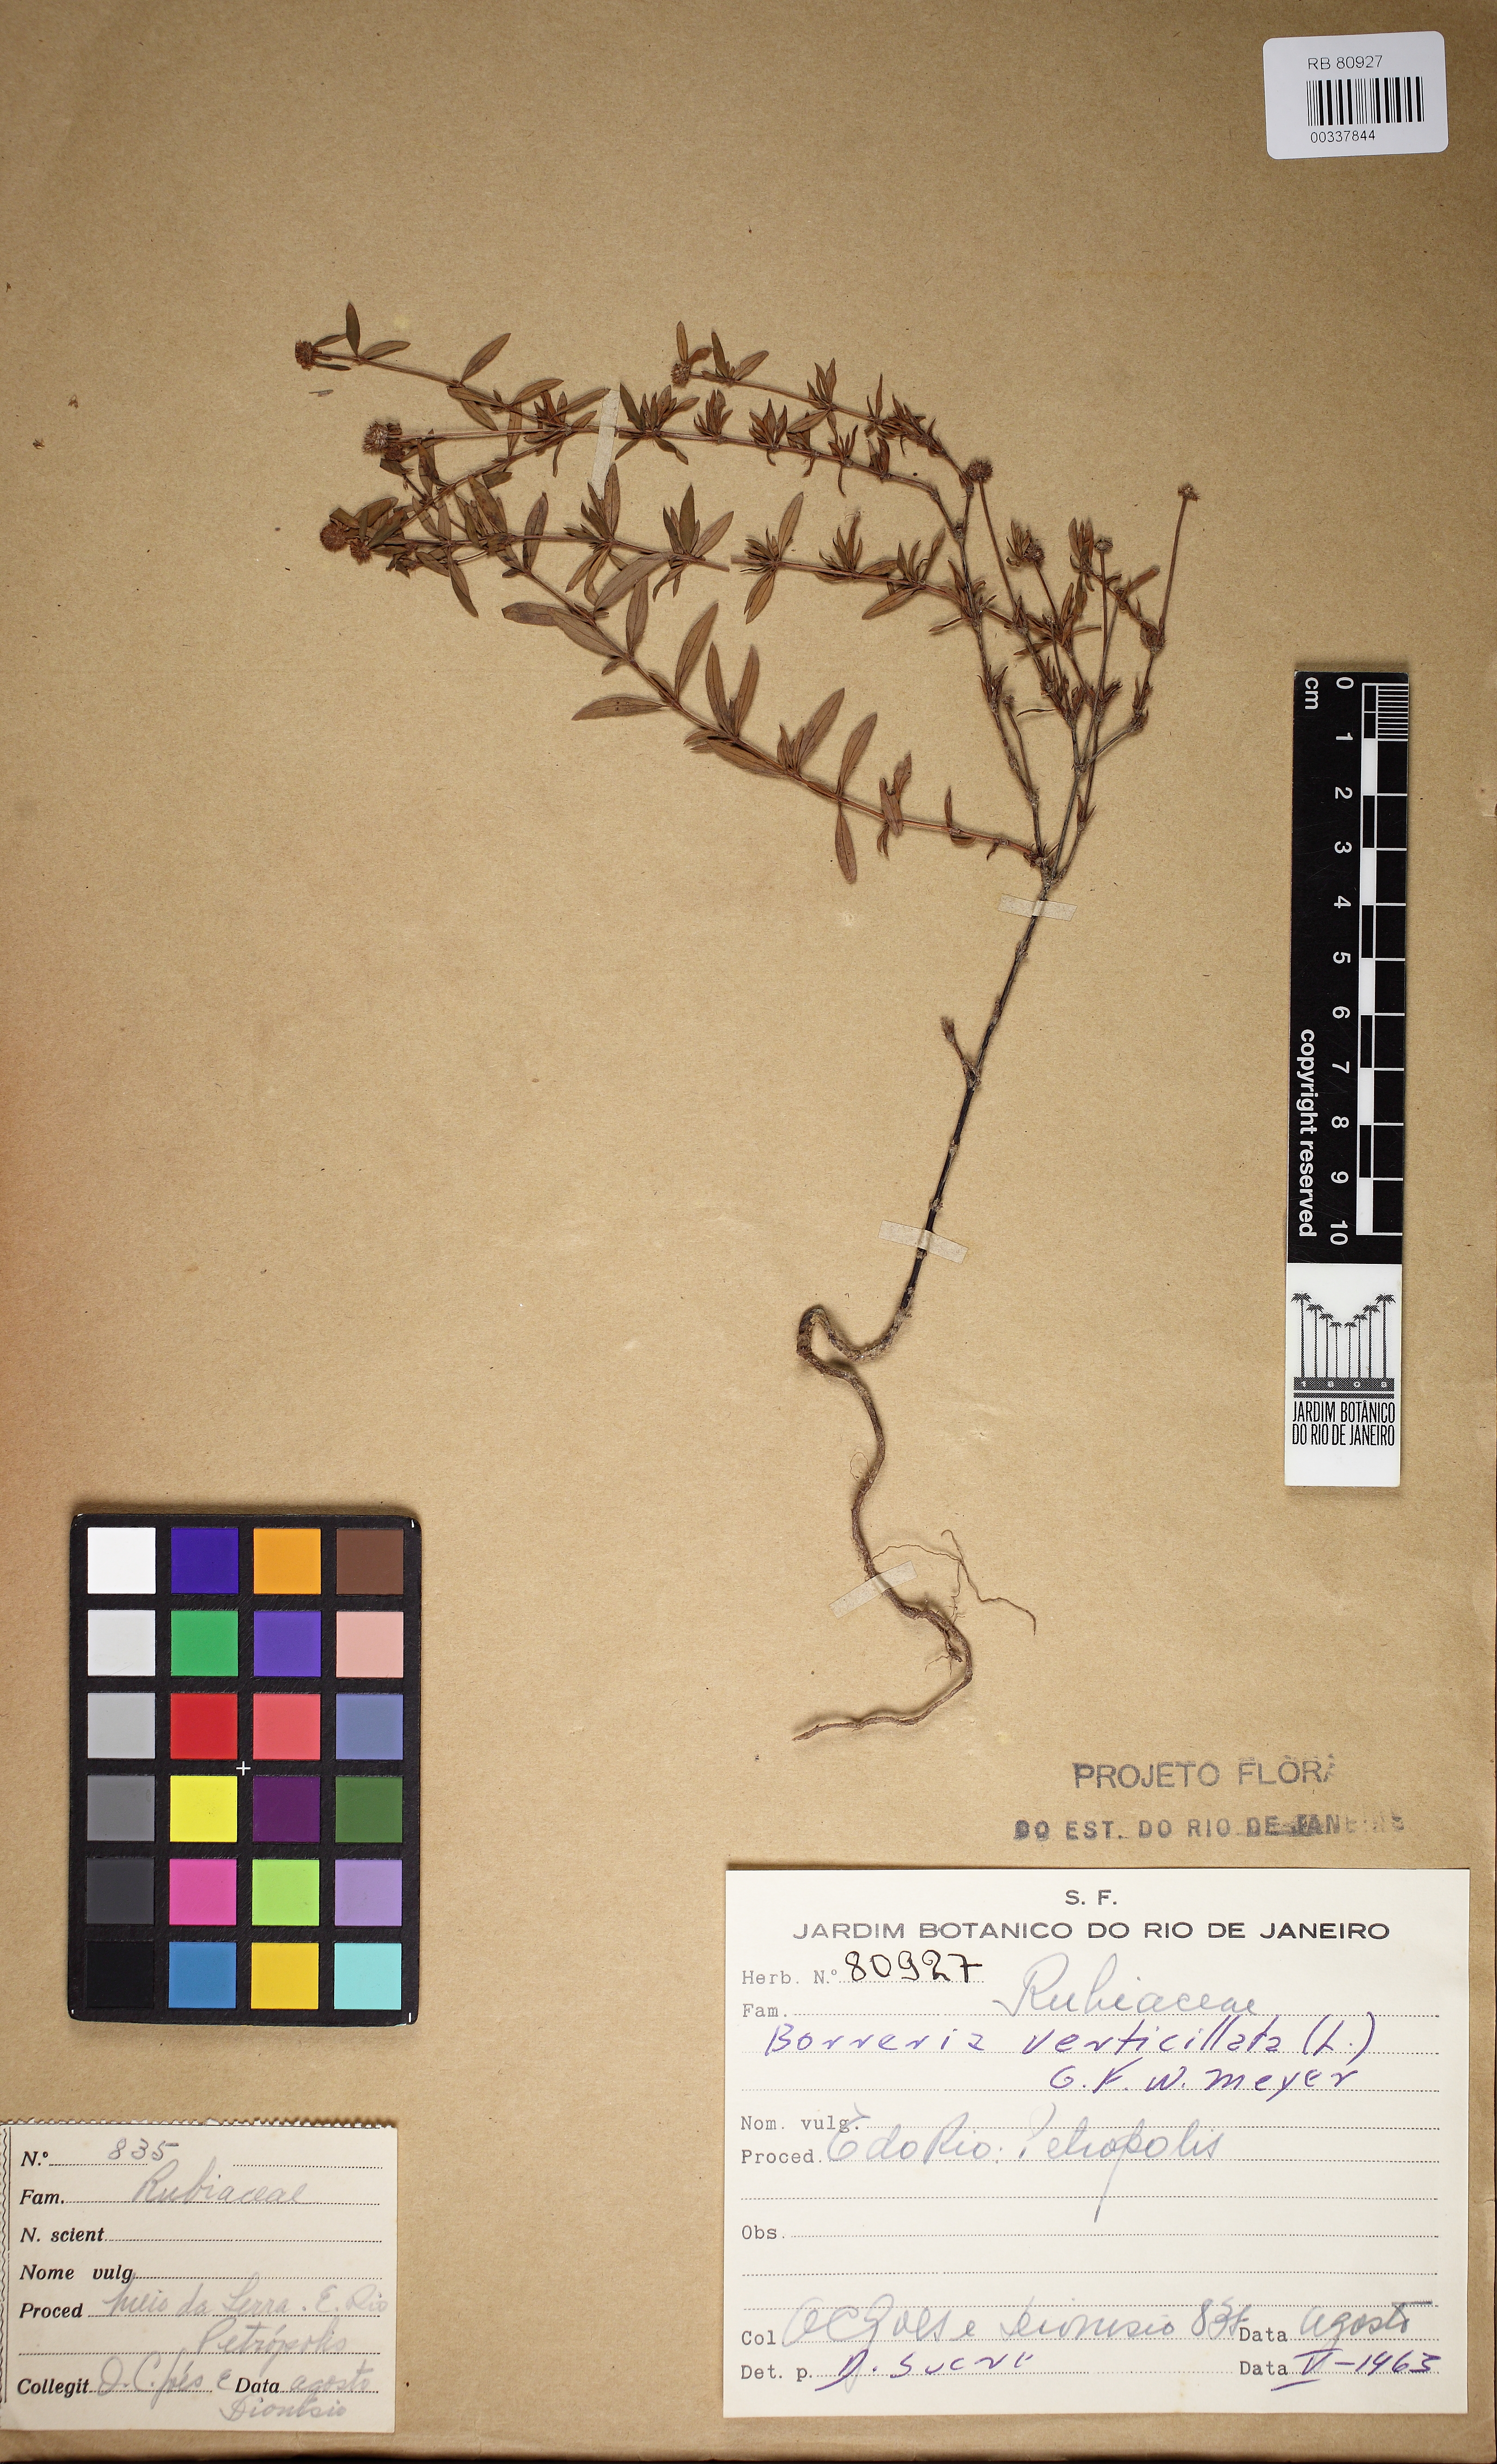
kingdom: Plantae
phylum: Tracheophyta
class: Magnoliopsida
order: Gentianales
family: Rubiaceae
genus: Spermacoce
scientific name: Spermacoce verticillata
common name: Shrubby false buttonweed
